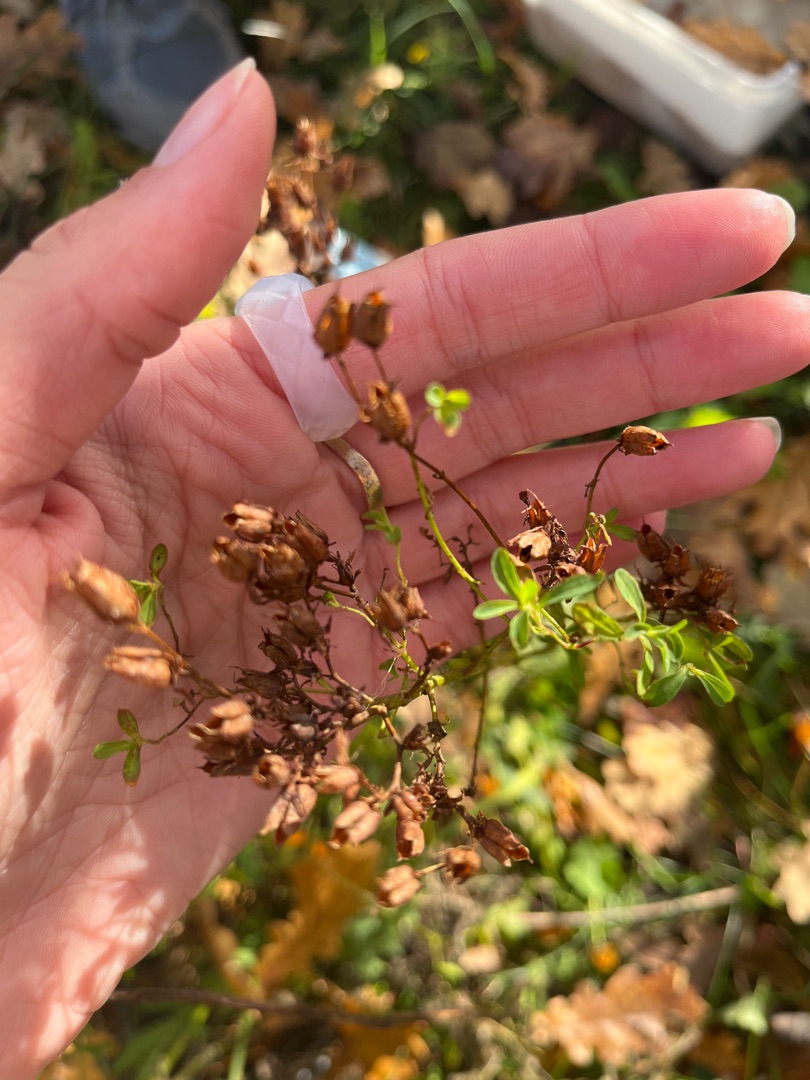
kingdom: Plantae
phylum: Tracheophyta
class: Magnoliopsida
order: Malpighiales
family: Hypericaceae
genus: Hypericum
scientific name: Hypericum perforatum
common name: Prikbladet perikon
